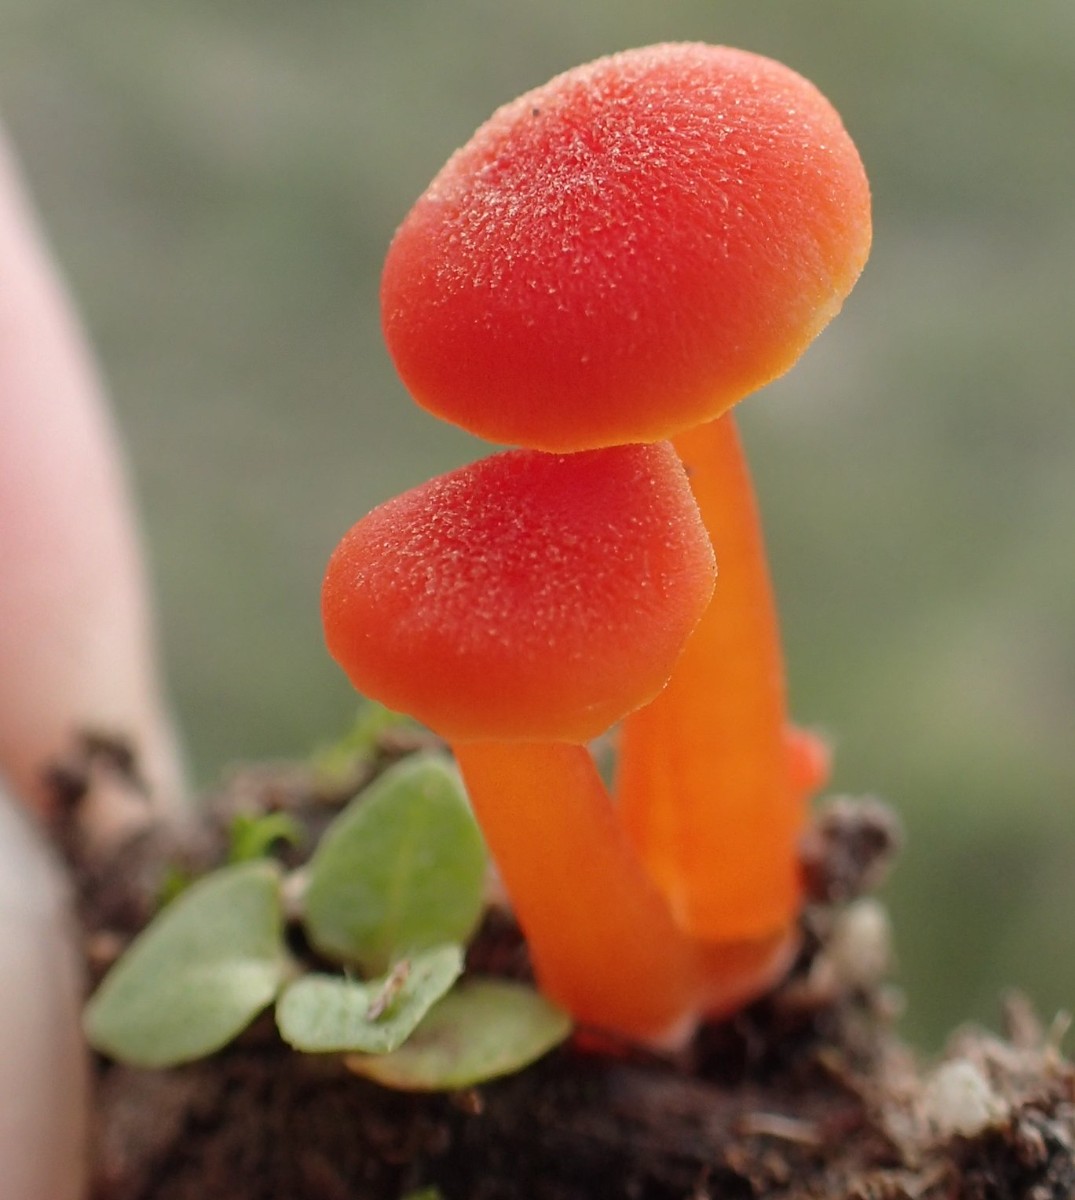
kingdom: Fungi
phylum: Basidiomycota
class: Agaricomycetes
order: Agaricales
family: Hygrophoraceae
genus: Hygrocybe
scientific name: Hygrocybe calciphila
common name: kalk-vokshat
